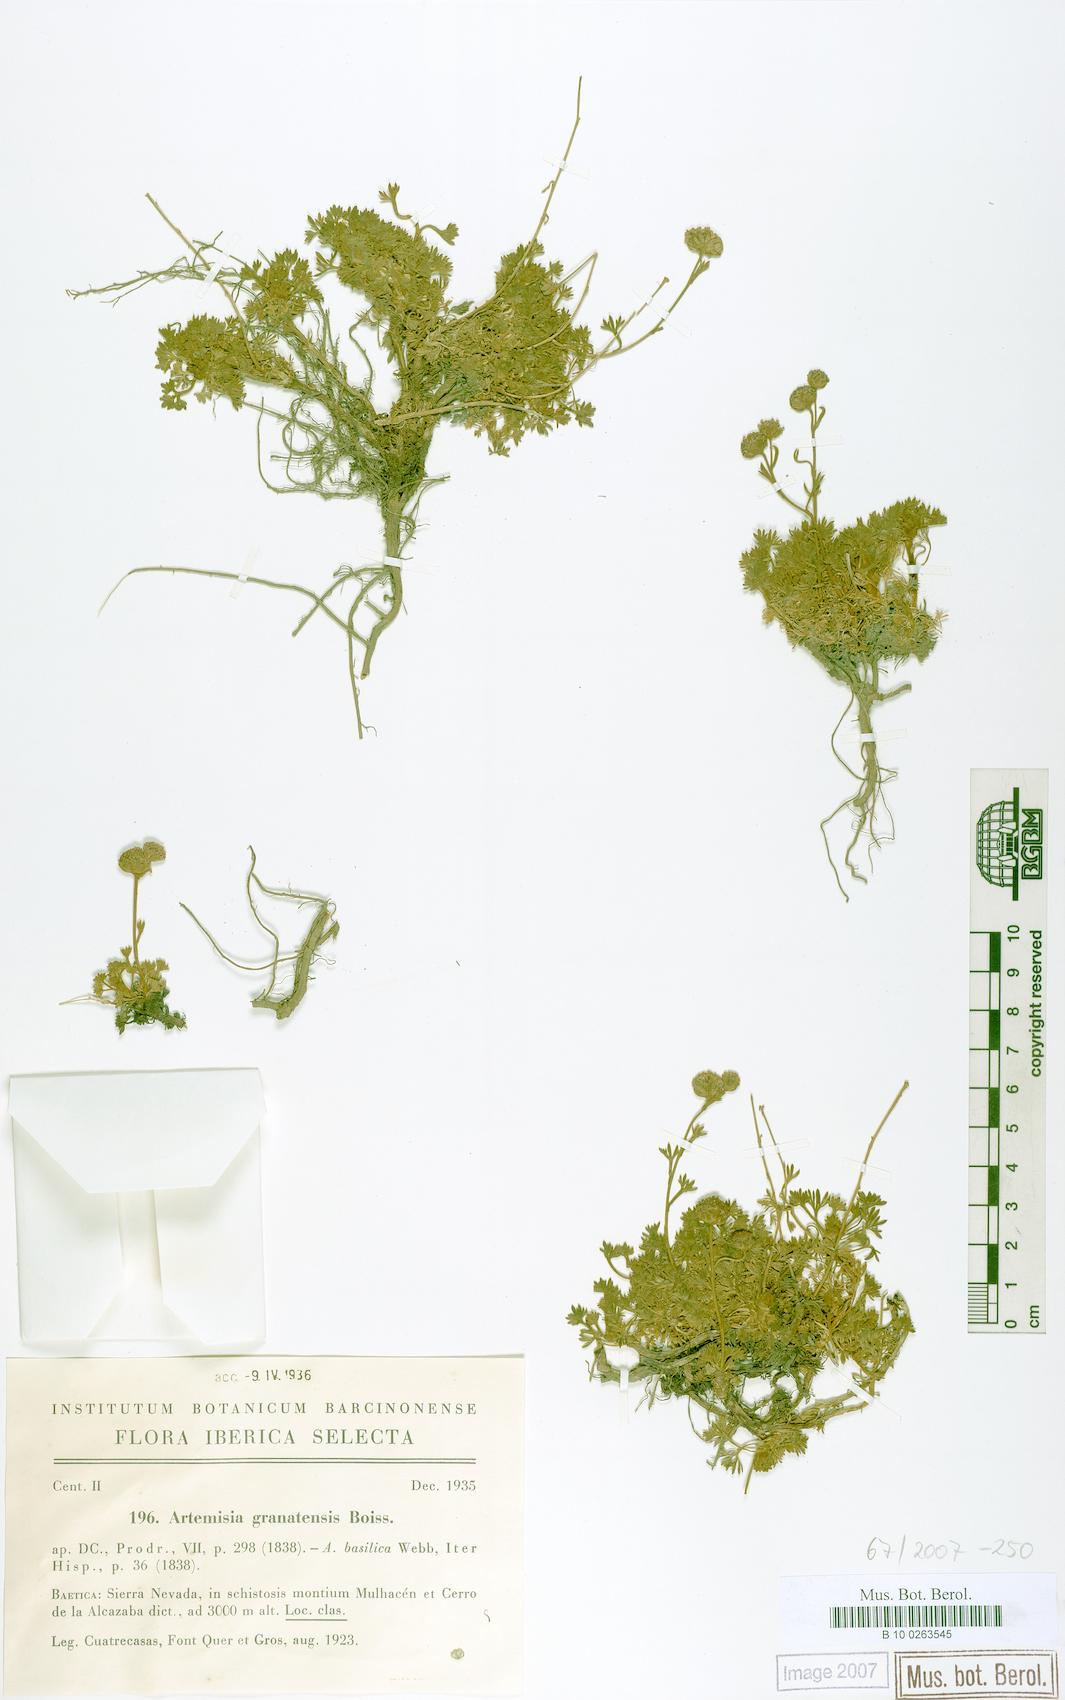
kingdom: Plantae
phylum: Tracheophyta
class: Magnoliopsida
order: Asterales
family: Asteraceae
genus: Artemisia
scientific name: Artemisia granatensis
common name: Royal chamomile
